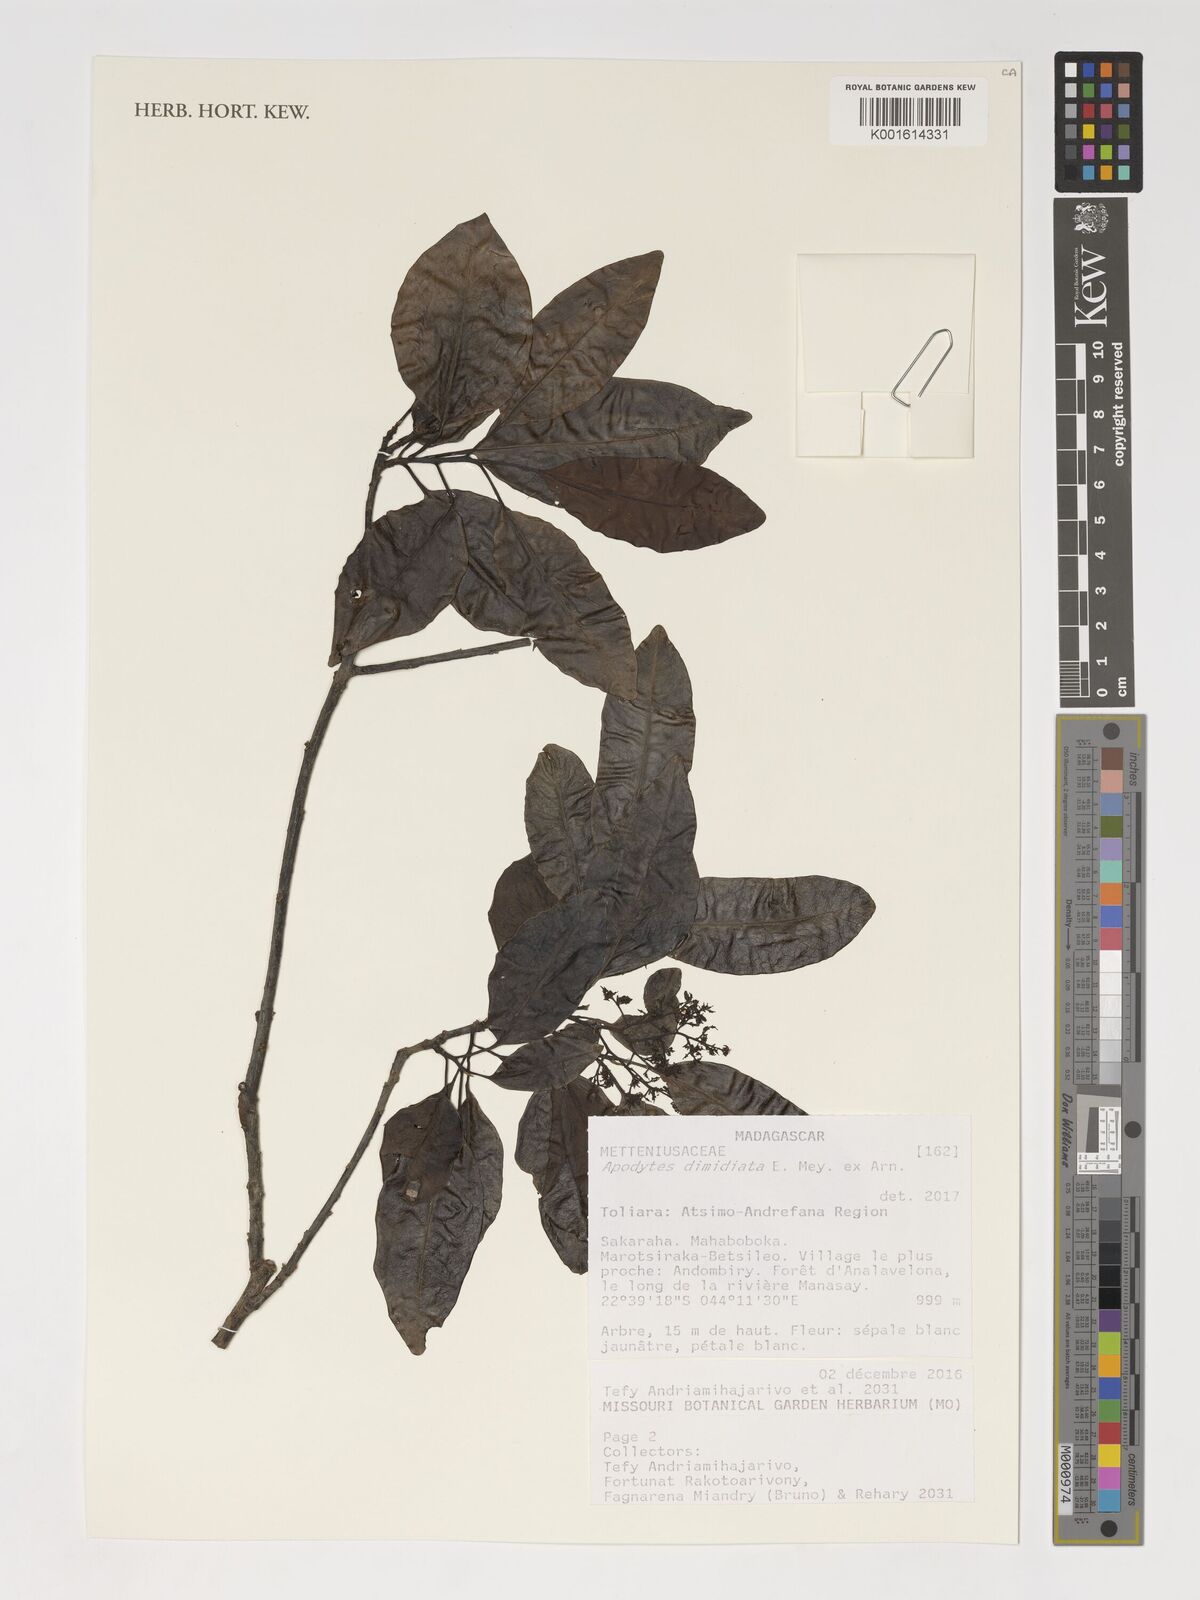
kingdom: Plantae
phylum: Tracheophyta
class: Magnoliopsida
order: Metteniusales
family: Metteniusaceae
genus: Apodytes
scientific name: Apodytes dimidiata
